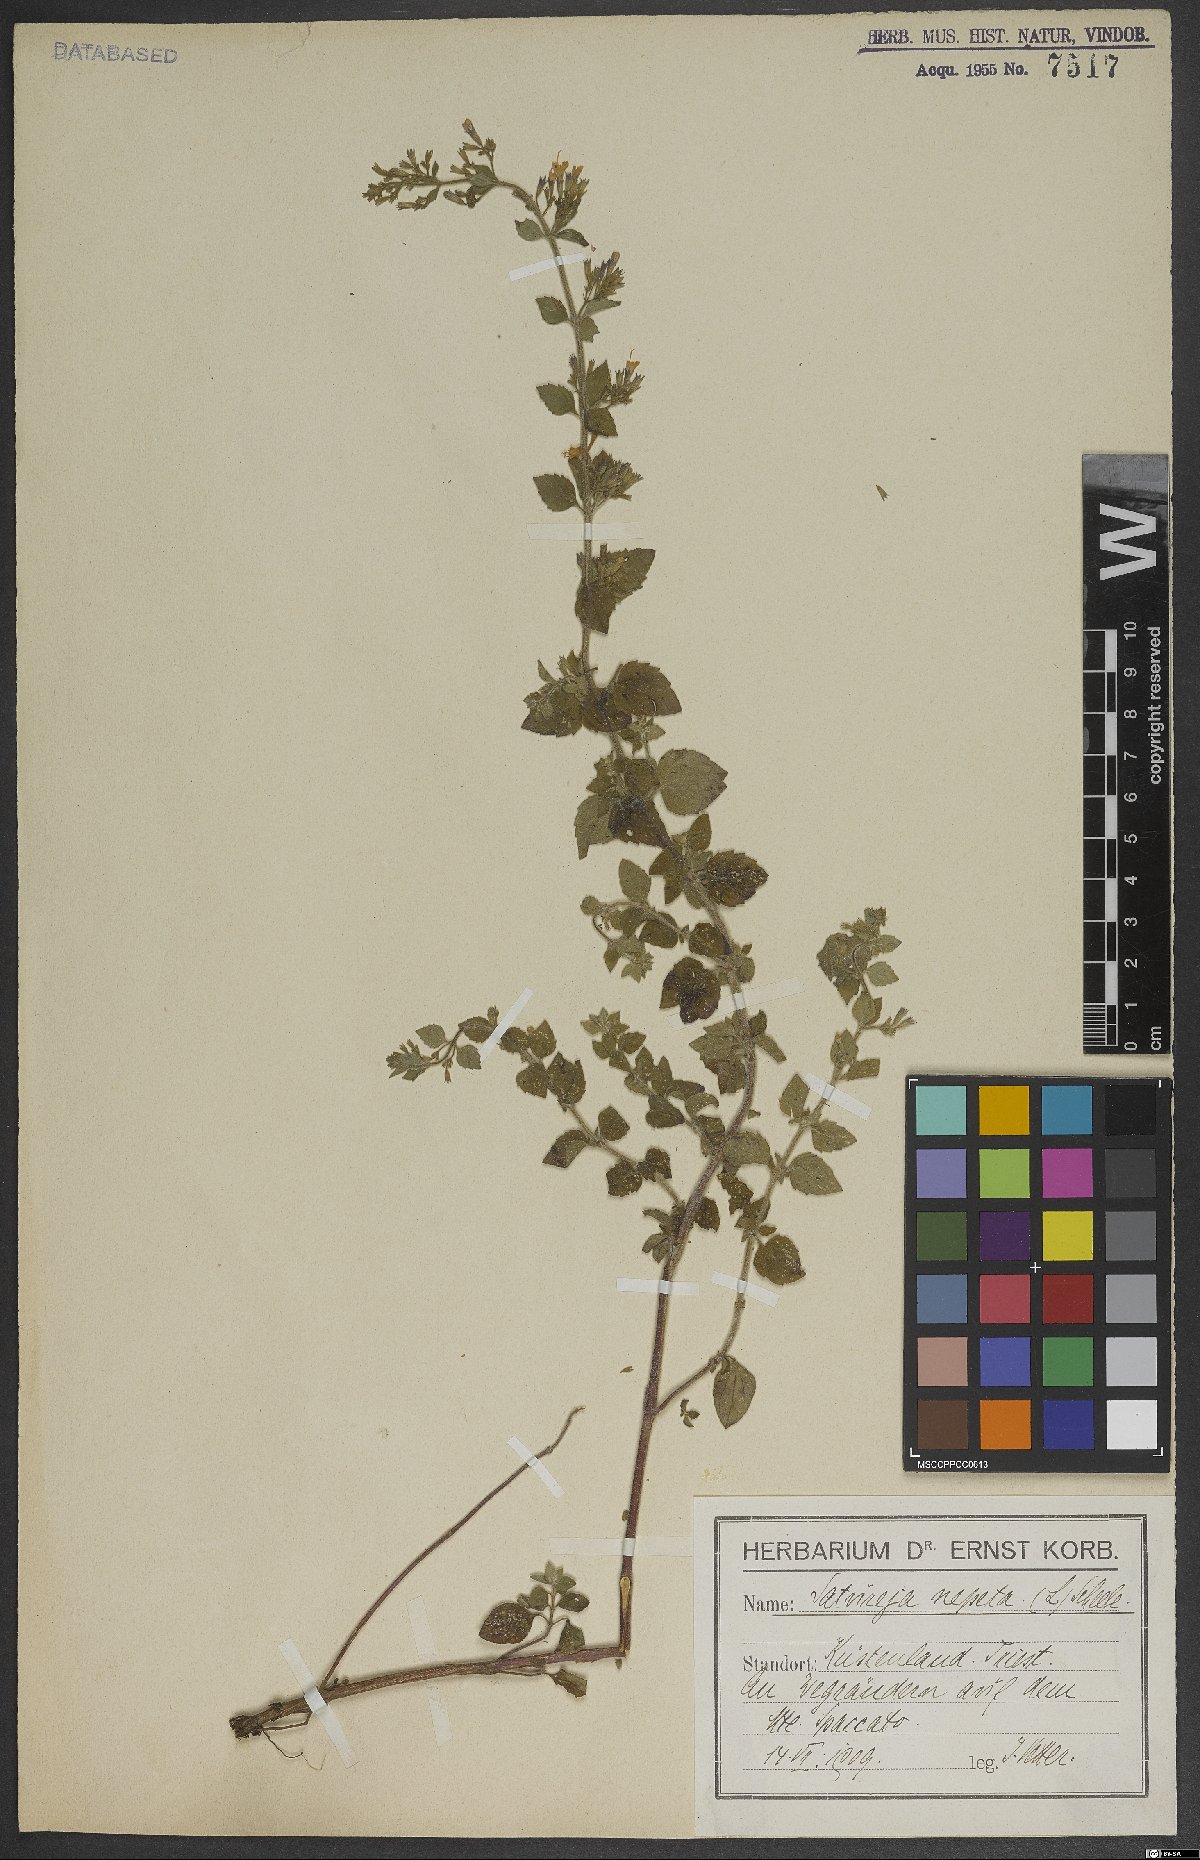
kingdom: Plantae
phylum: Tracheophyta
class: Magnoliopsida
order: Lamiales
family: Lamiaceae
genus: Clinopodium
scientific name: Clinopodium nepeta
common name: Lesser calamint
